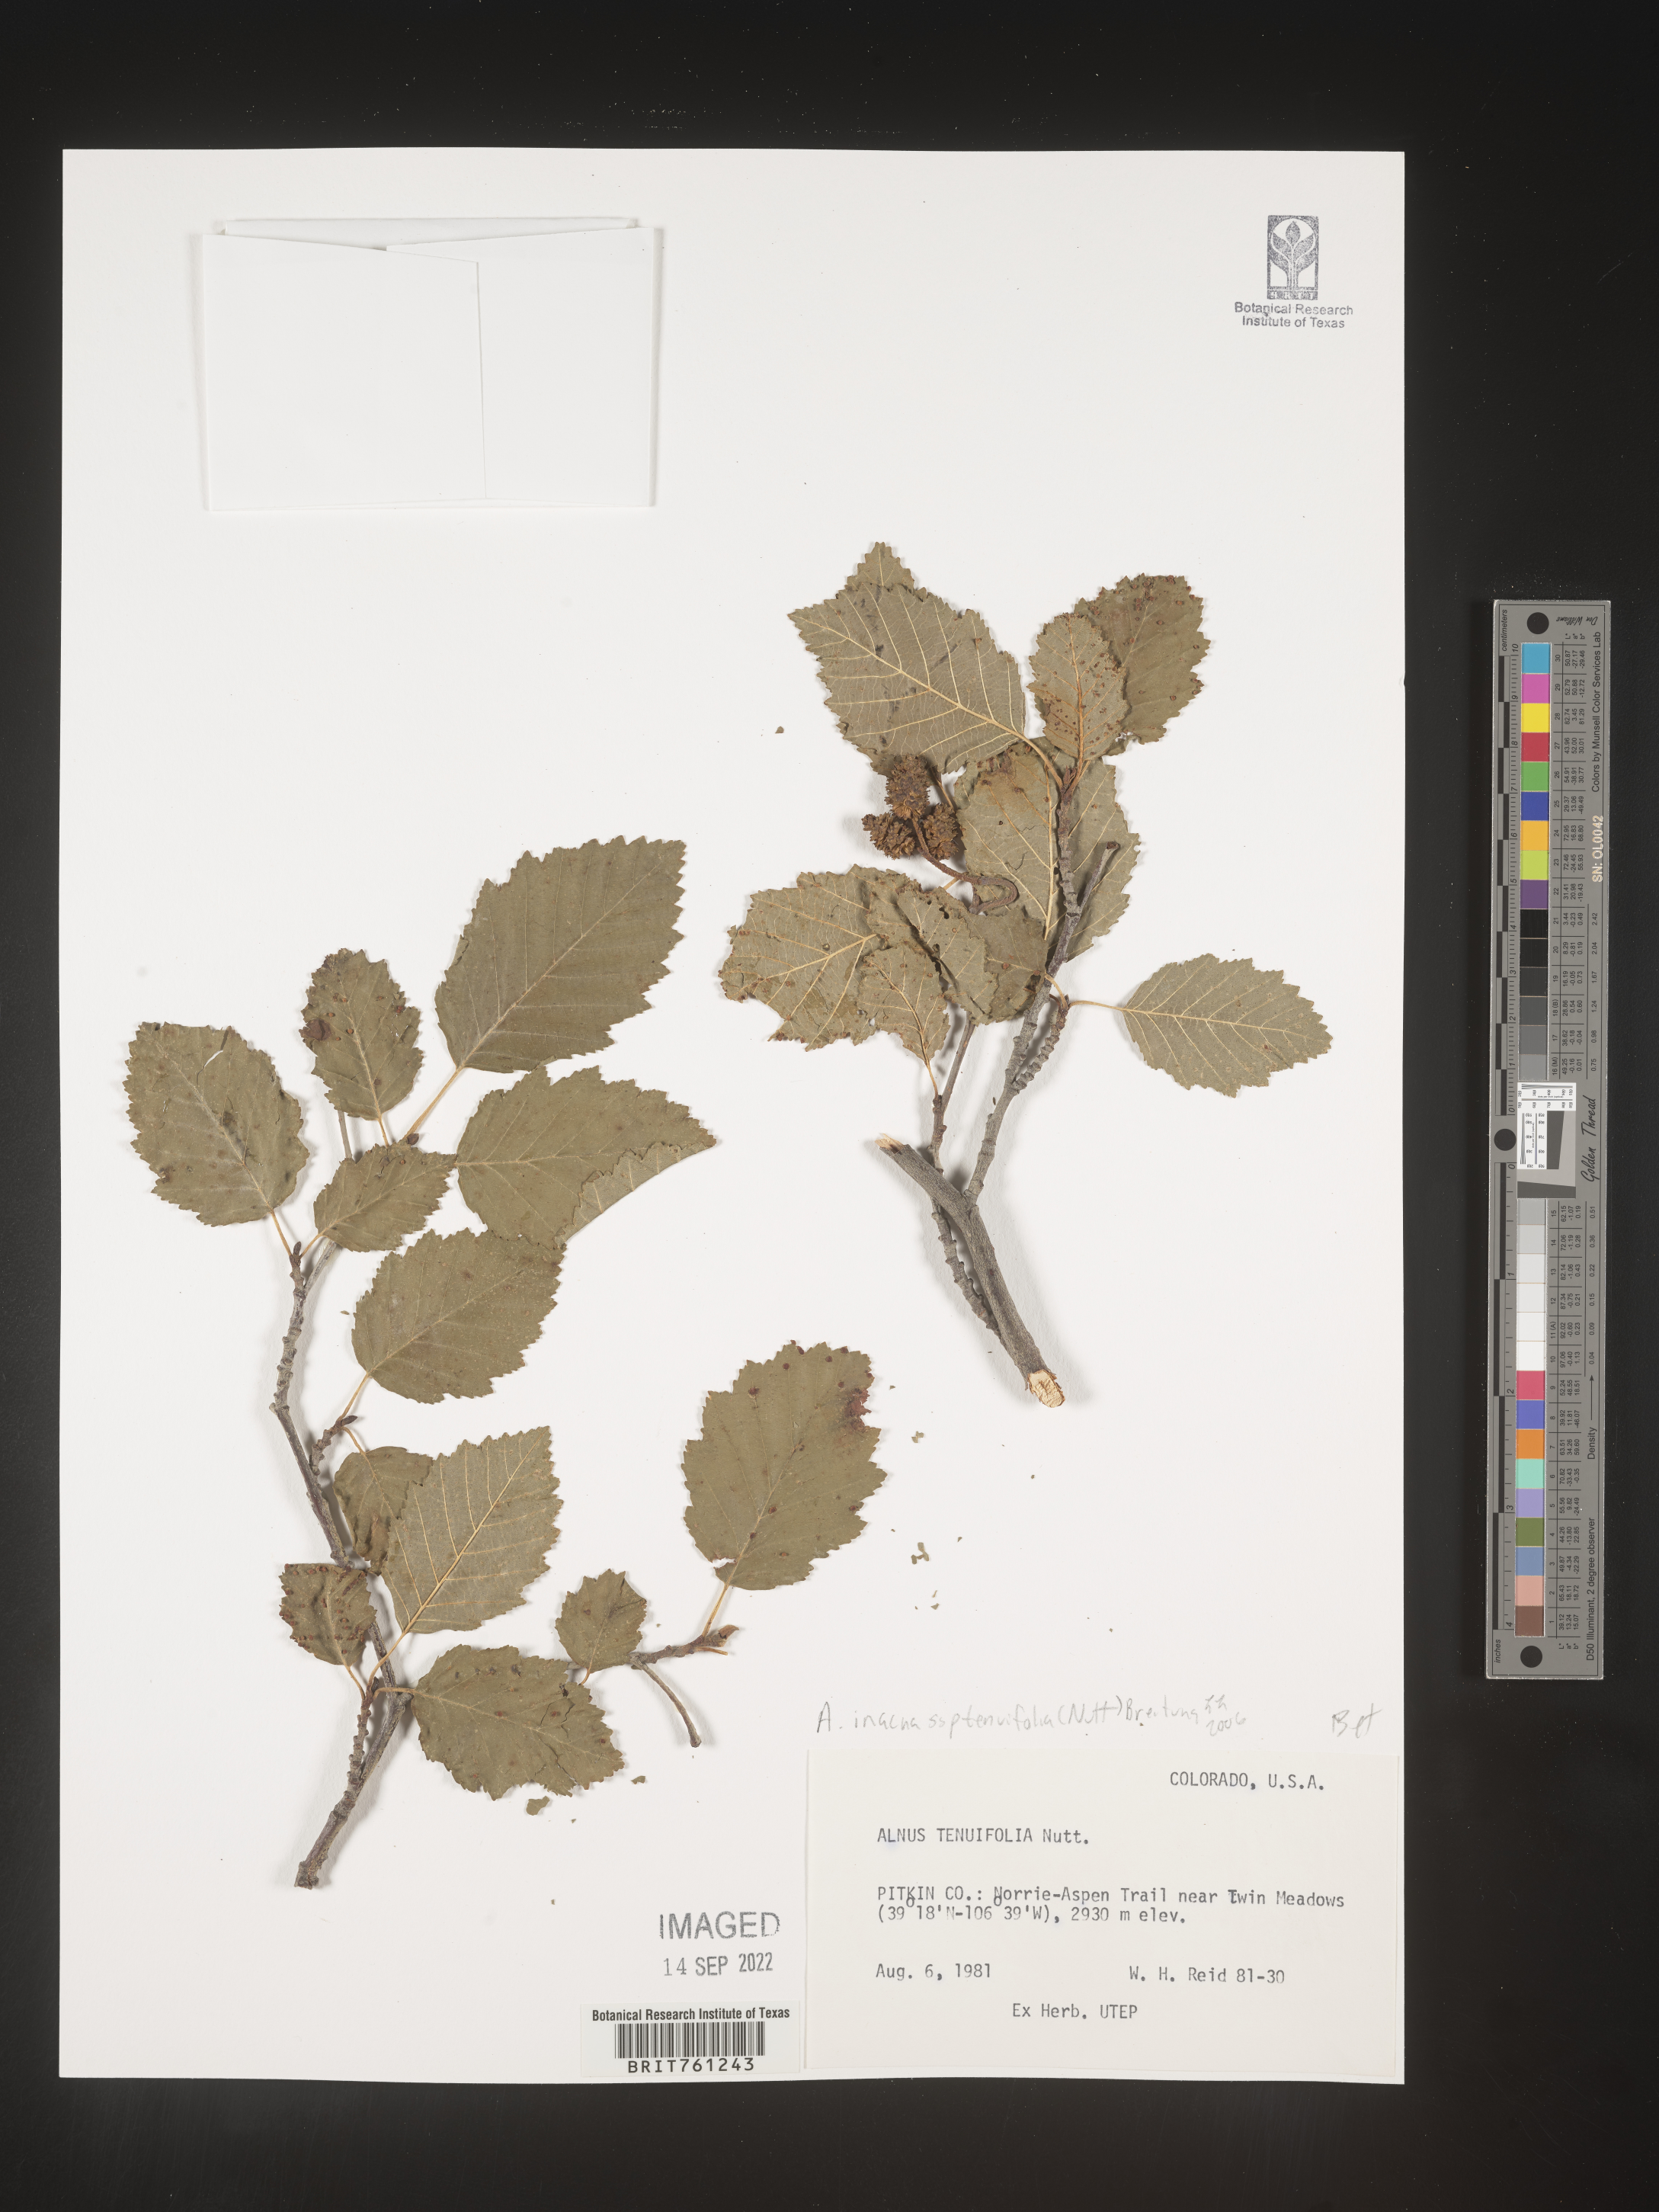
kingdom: Plantae
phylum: Tracheophyta
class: Magnoliopsida
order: Fagales
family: Betulaceae
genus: Alnus
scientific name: Alnus incana
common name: Grey alder
